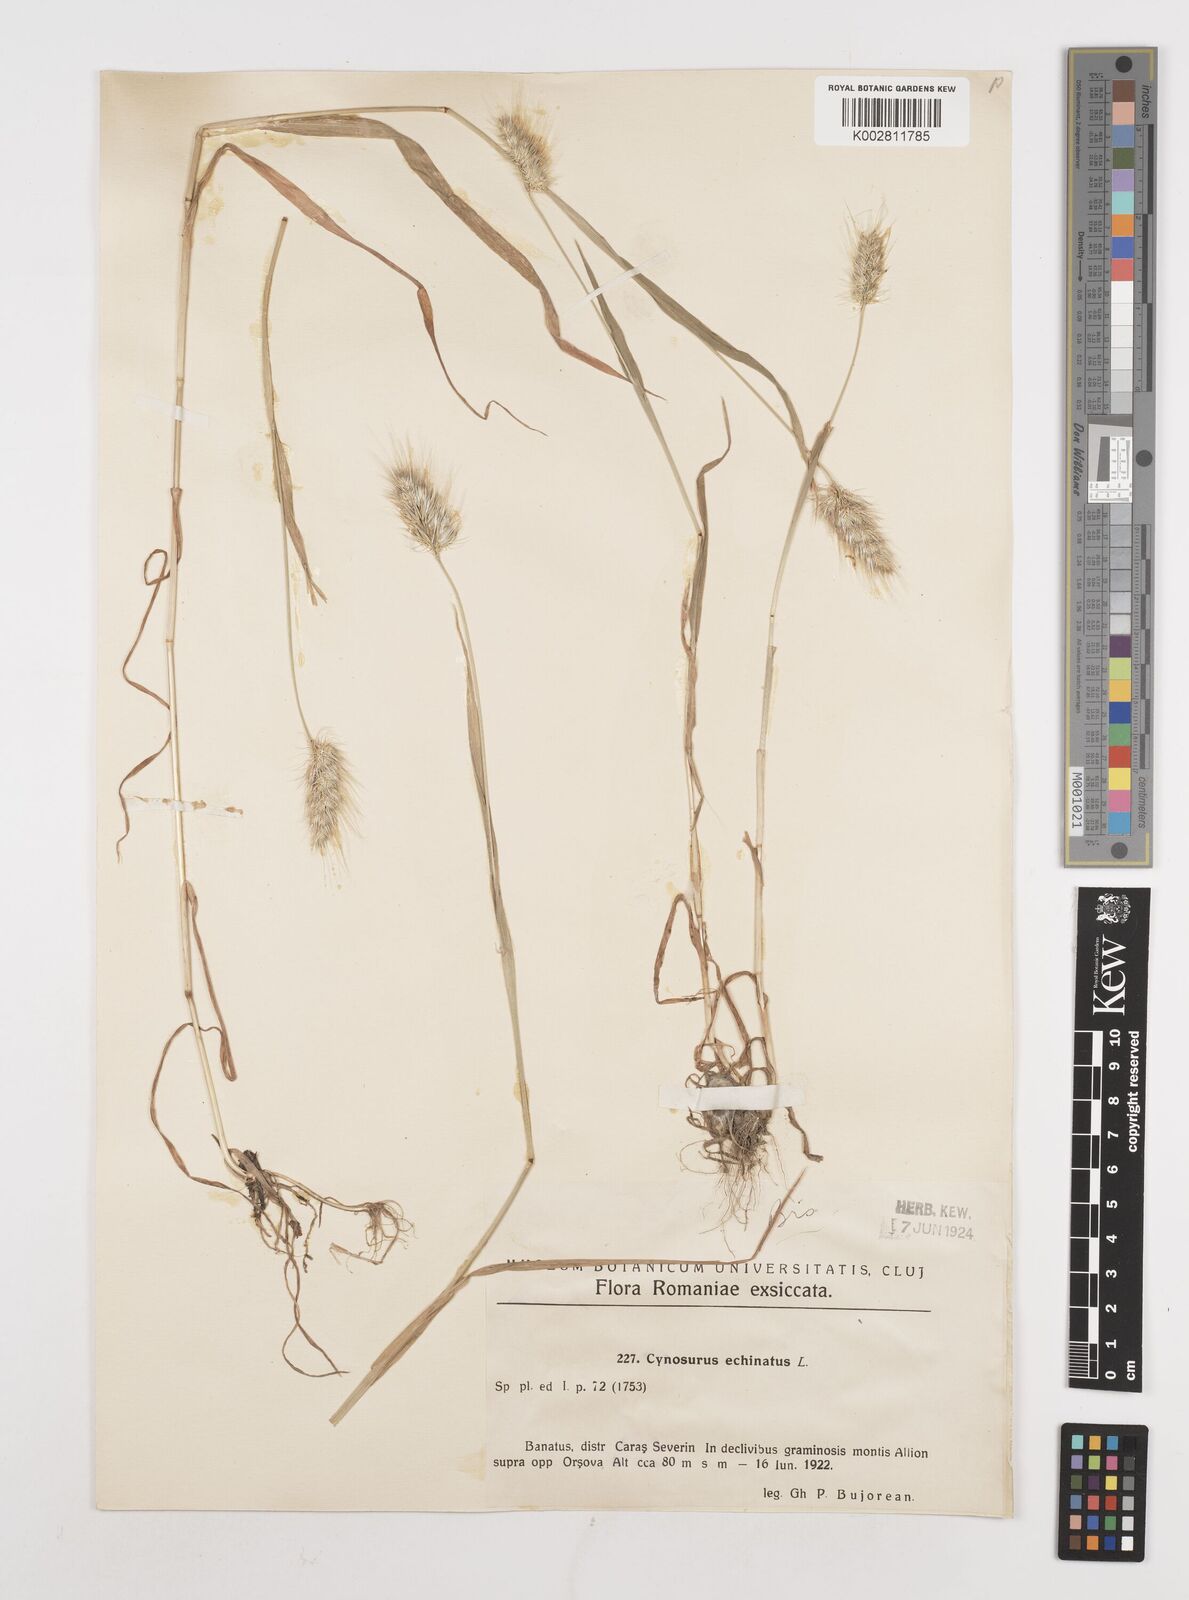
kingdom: Plantae
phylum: Tracheophyta
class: Liliopsida
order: Poales
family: Poaceae
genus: Cynosurus
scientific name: Cynosurus echinatus
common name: Rough dog's-tail
